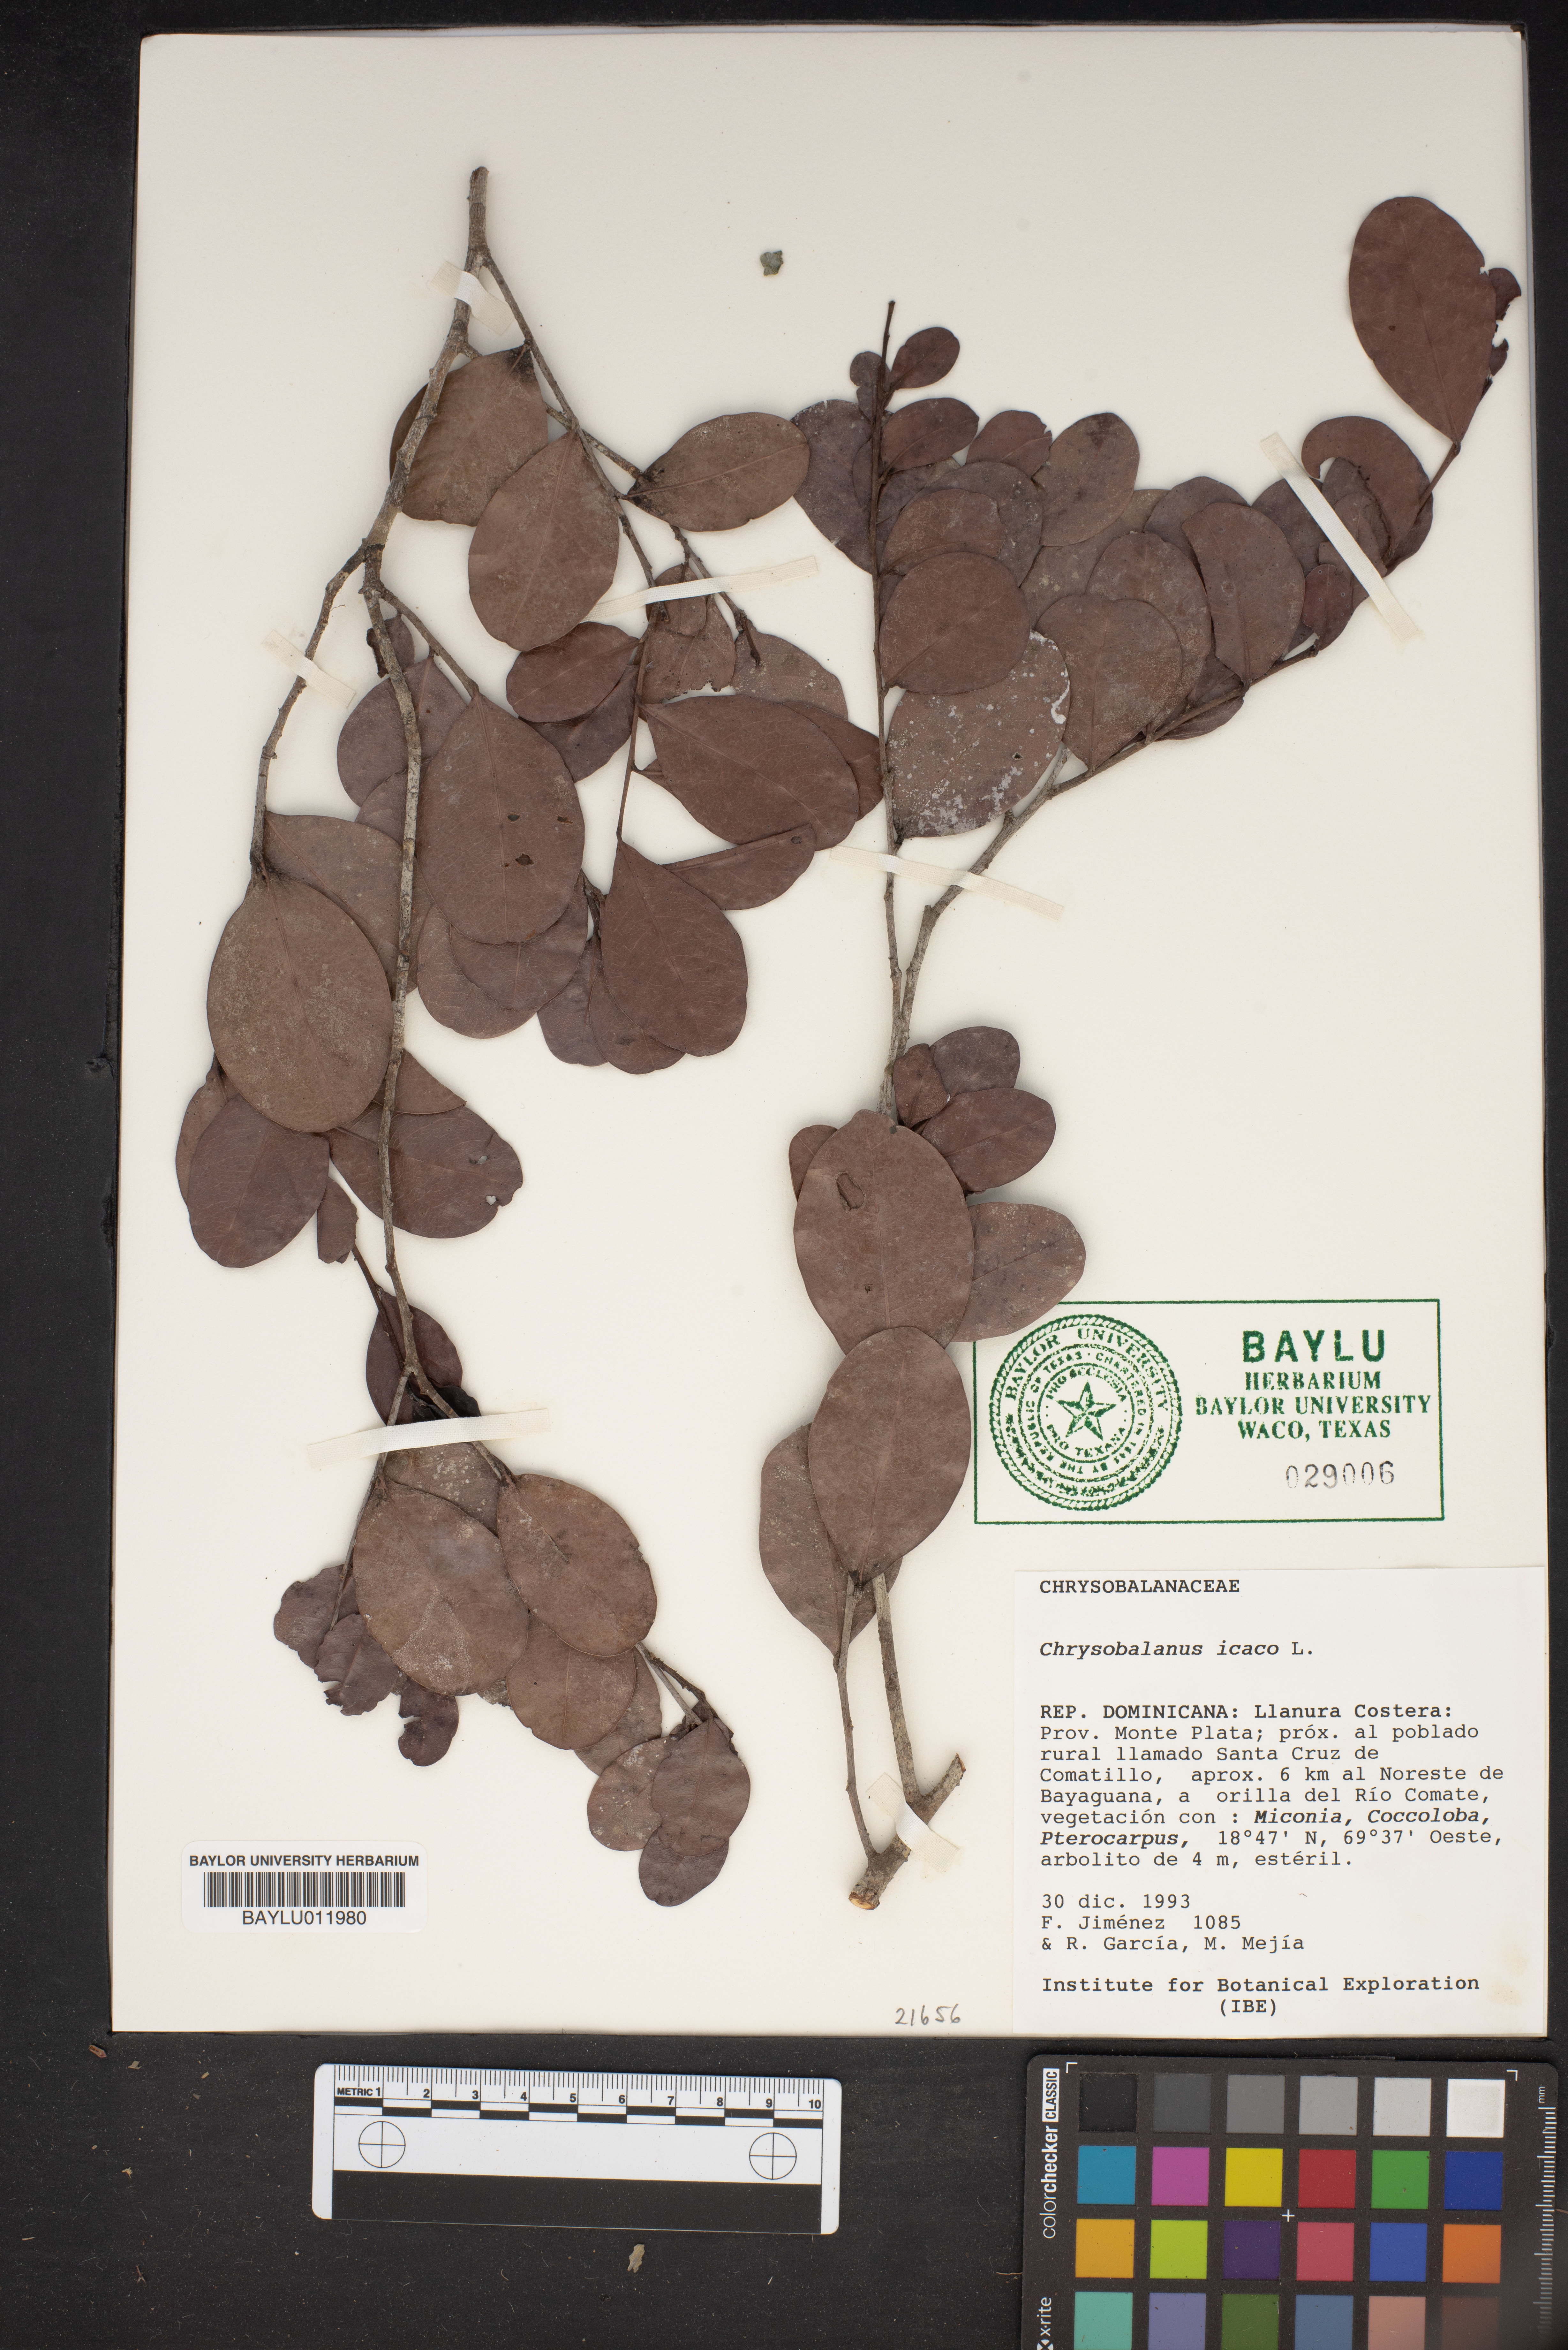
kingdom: Plantae
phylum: Tracheophyta
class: Magnoliopsida
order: Malpighiales
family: Chrysobalanaceae
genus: Chrysobalanus
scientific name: Chrysobalanus icaco
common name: Coco plum
